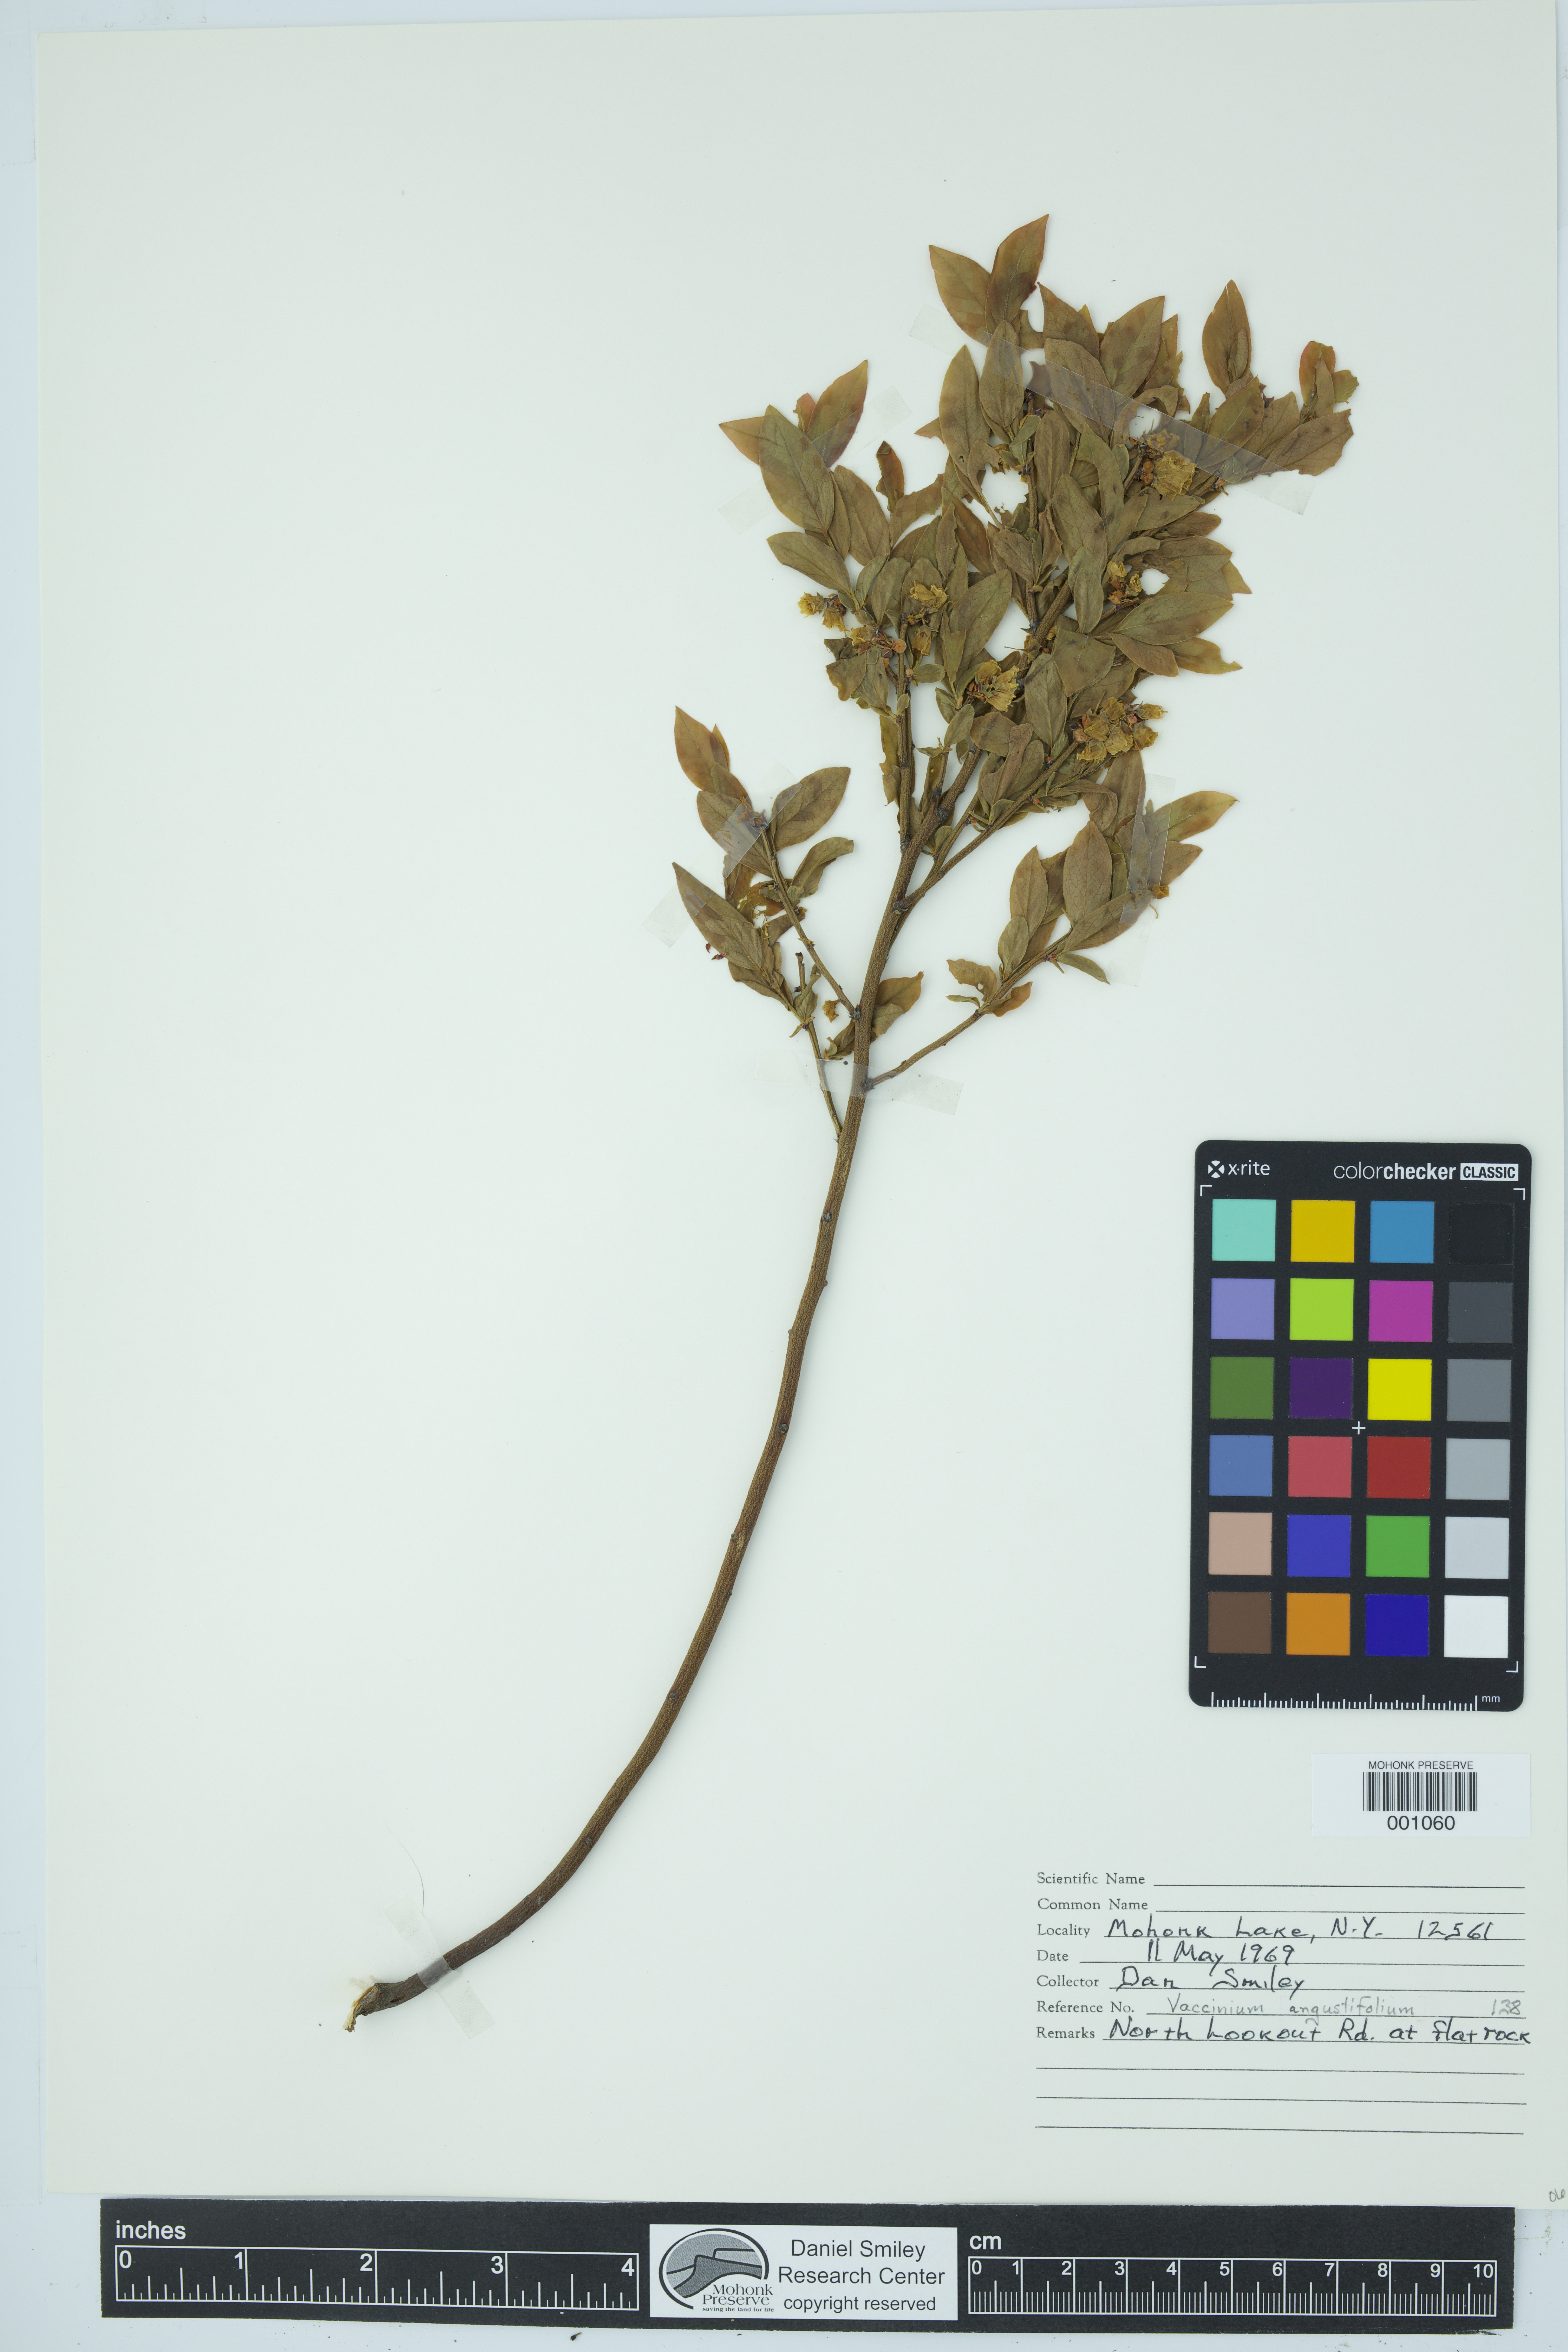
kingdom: Plantae
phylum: Tracheophyta
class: Magnoliopsida
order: Ericales
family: Ericaceae
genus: Vaccinium
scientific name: Vaccinium angustifolium
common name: Early lowbush blueberry
